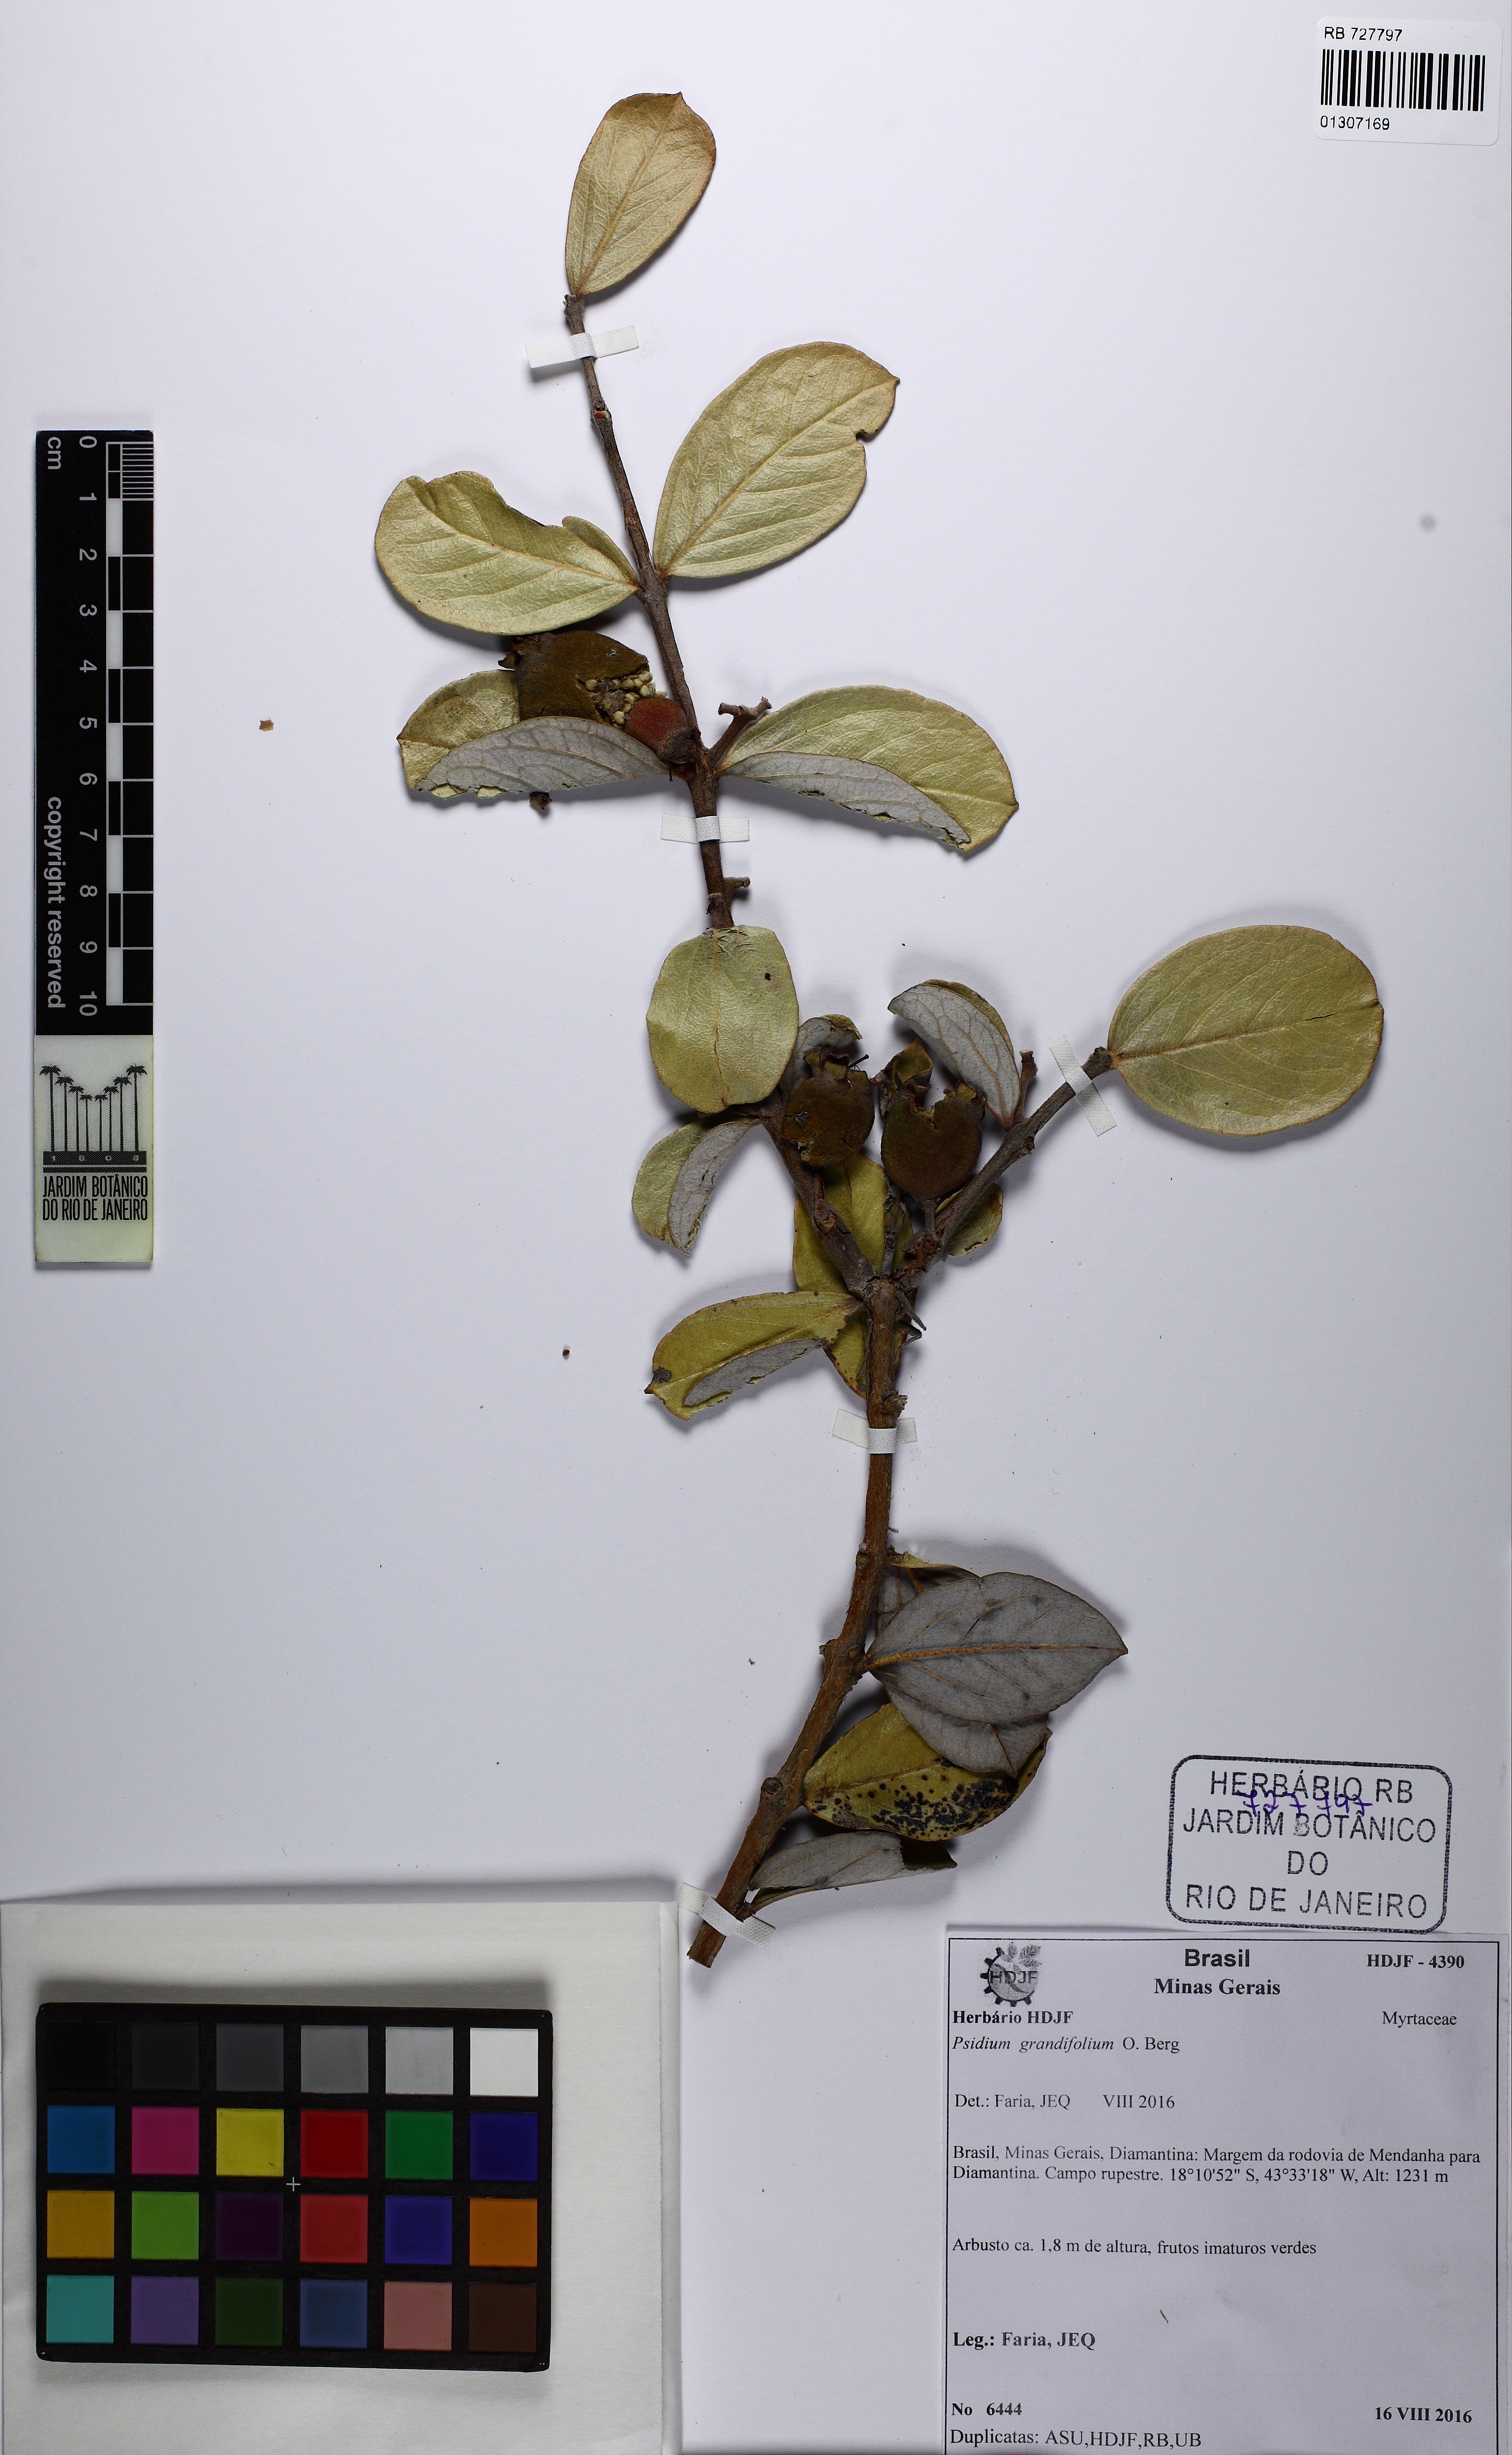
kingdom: Plantae
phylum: Tracheophyta
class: Magnoliopsida
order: Myrtales
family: Myrtaceae
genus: Psidium
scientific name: Psidium grandifolium
